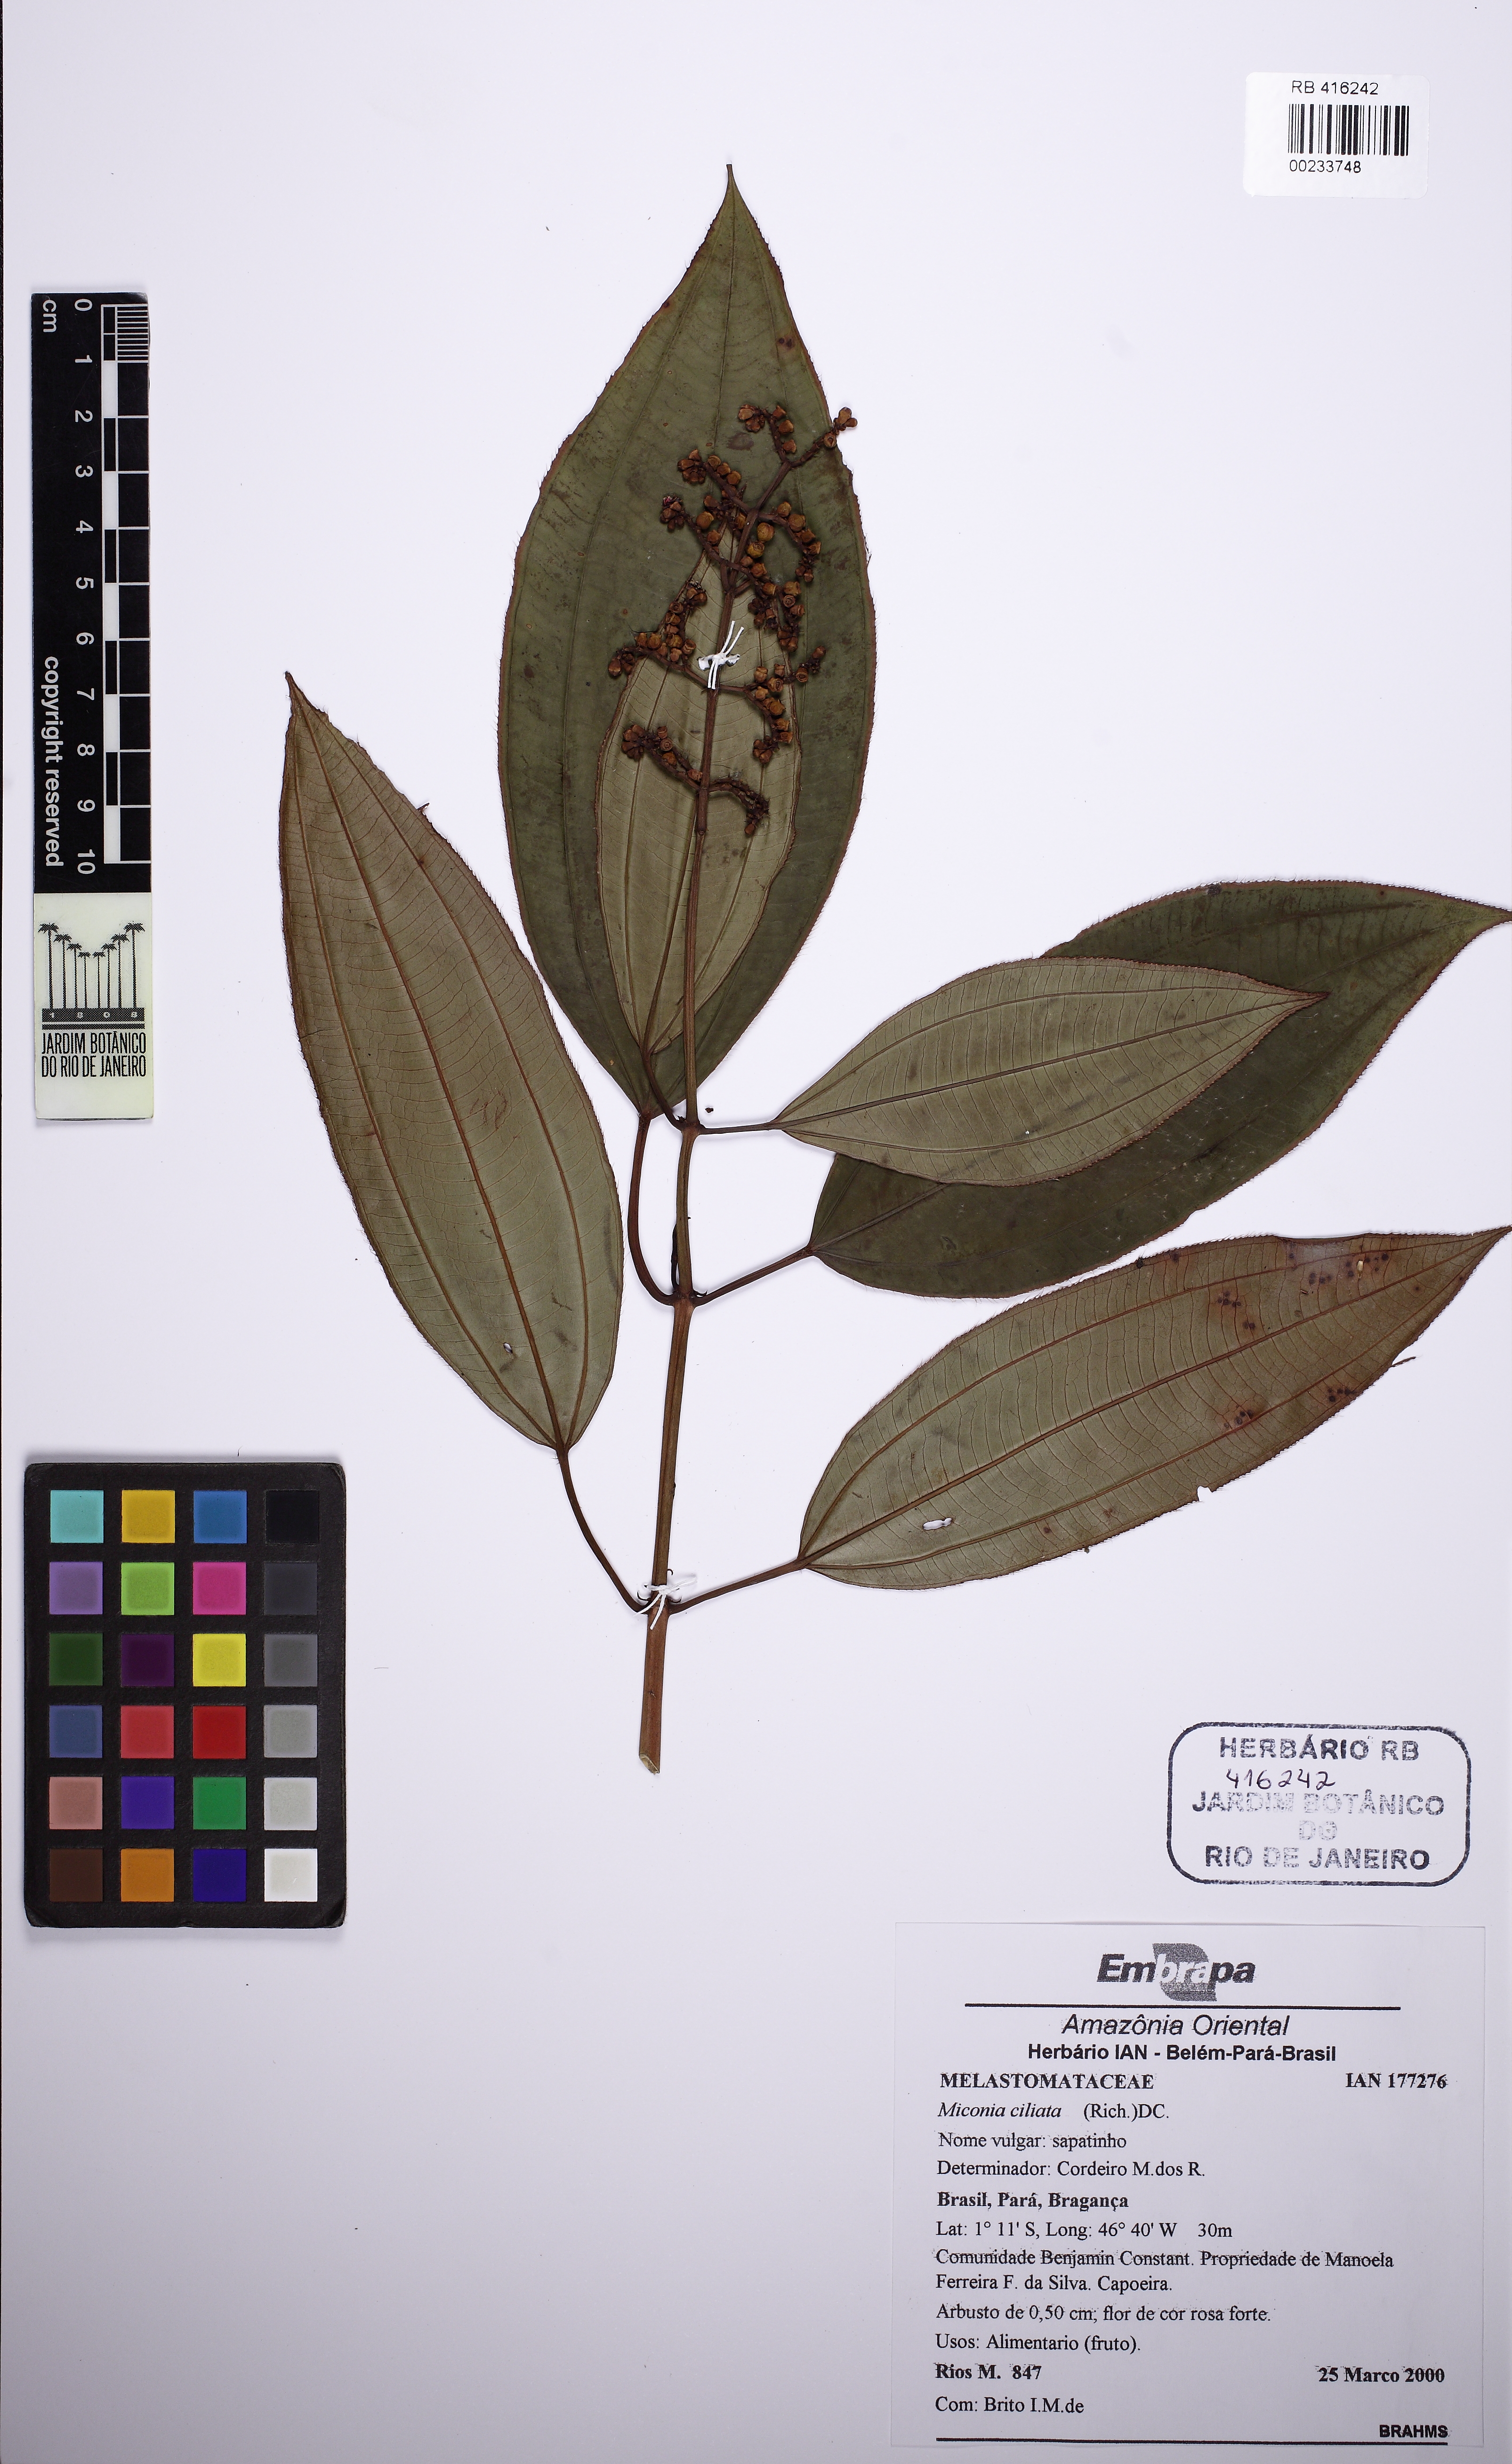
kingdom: Plantae
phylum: Tracheophyta
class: Magnoliopsida
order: Myrtales
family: Melastomataceae
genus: Miconia
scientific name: Miconia ciliata
